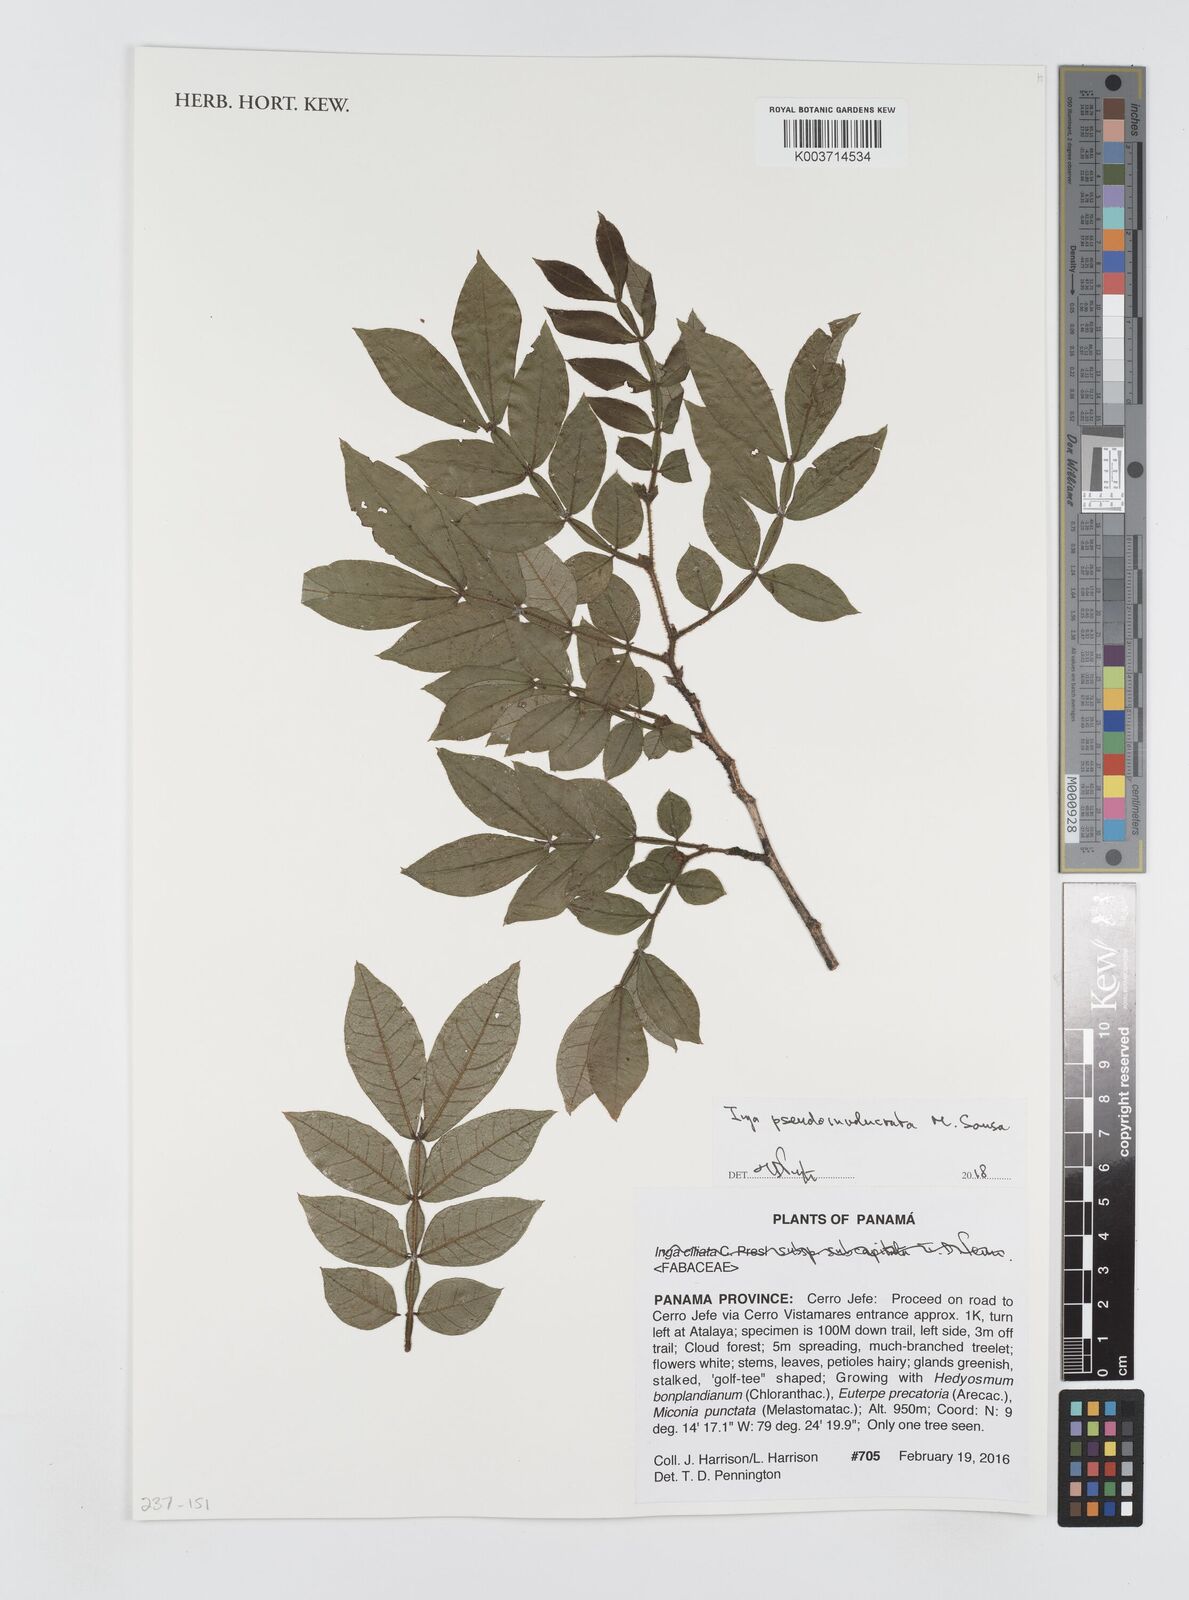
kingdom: Plantae
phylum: Tracheophyta
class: Magnoliopsida
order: Fabales
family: Fabaceae
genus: Inga
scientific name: Inga pseudoinvolucrata
